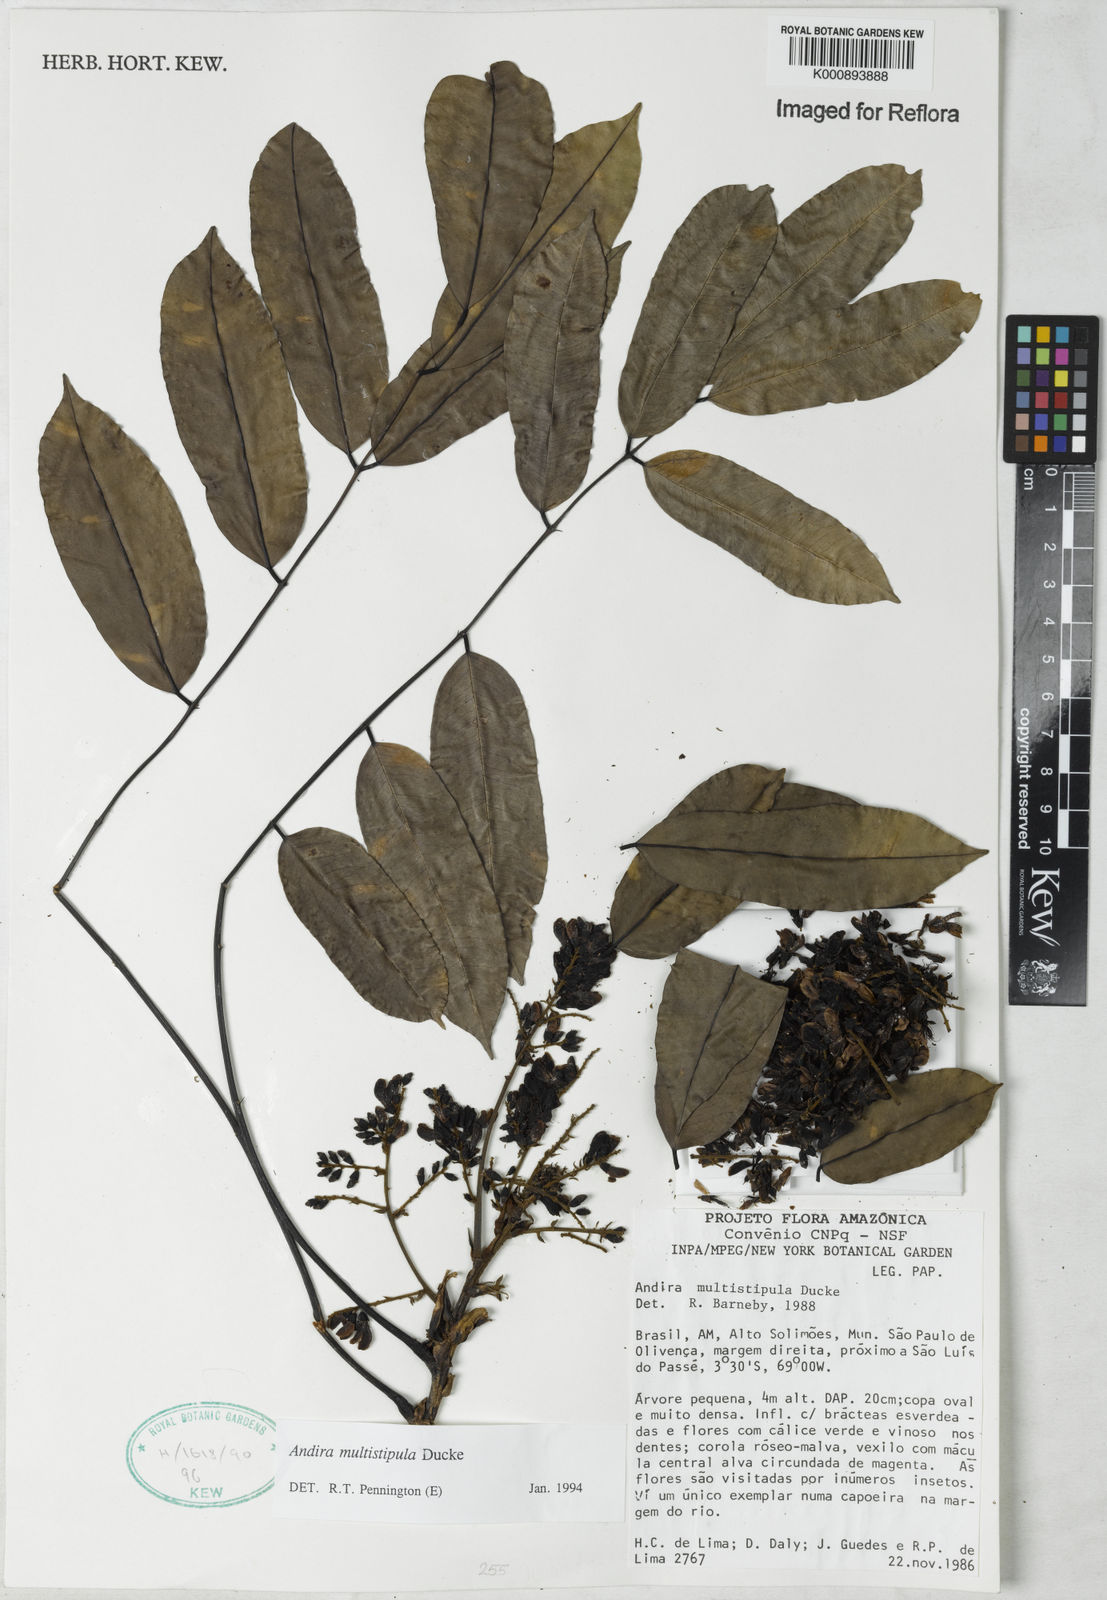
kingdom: Plantae
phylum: Tracheophyta
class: Magnoliopsida
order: Fabales
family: Fabaceae
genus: Andira
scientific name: Andira multistipula
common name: Pisho
